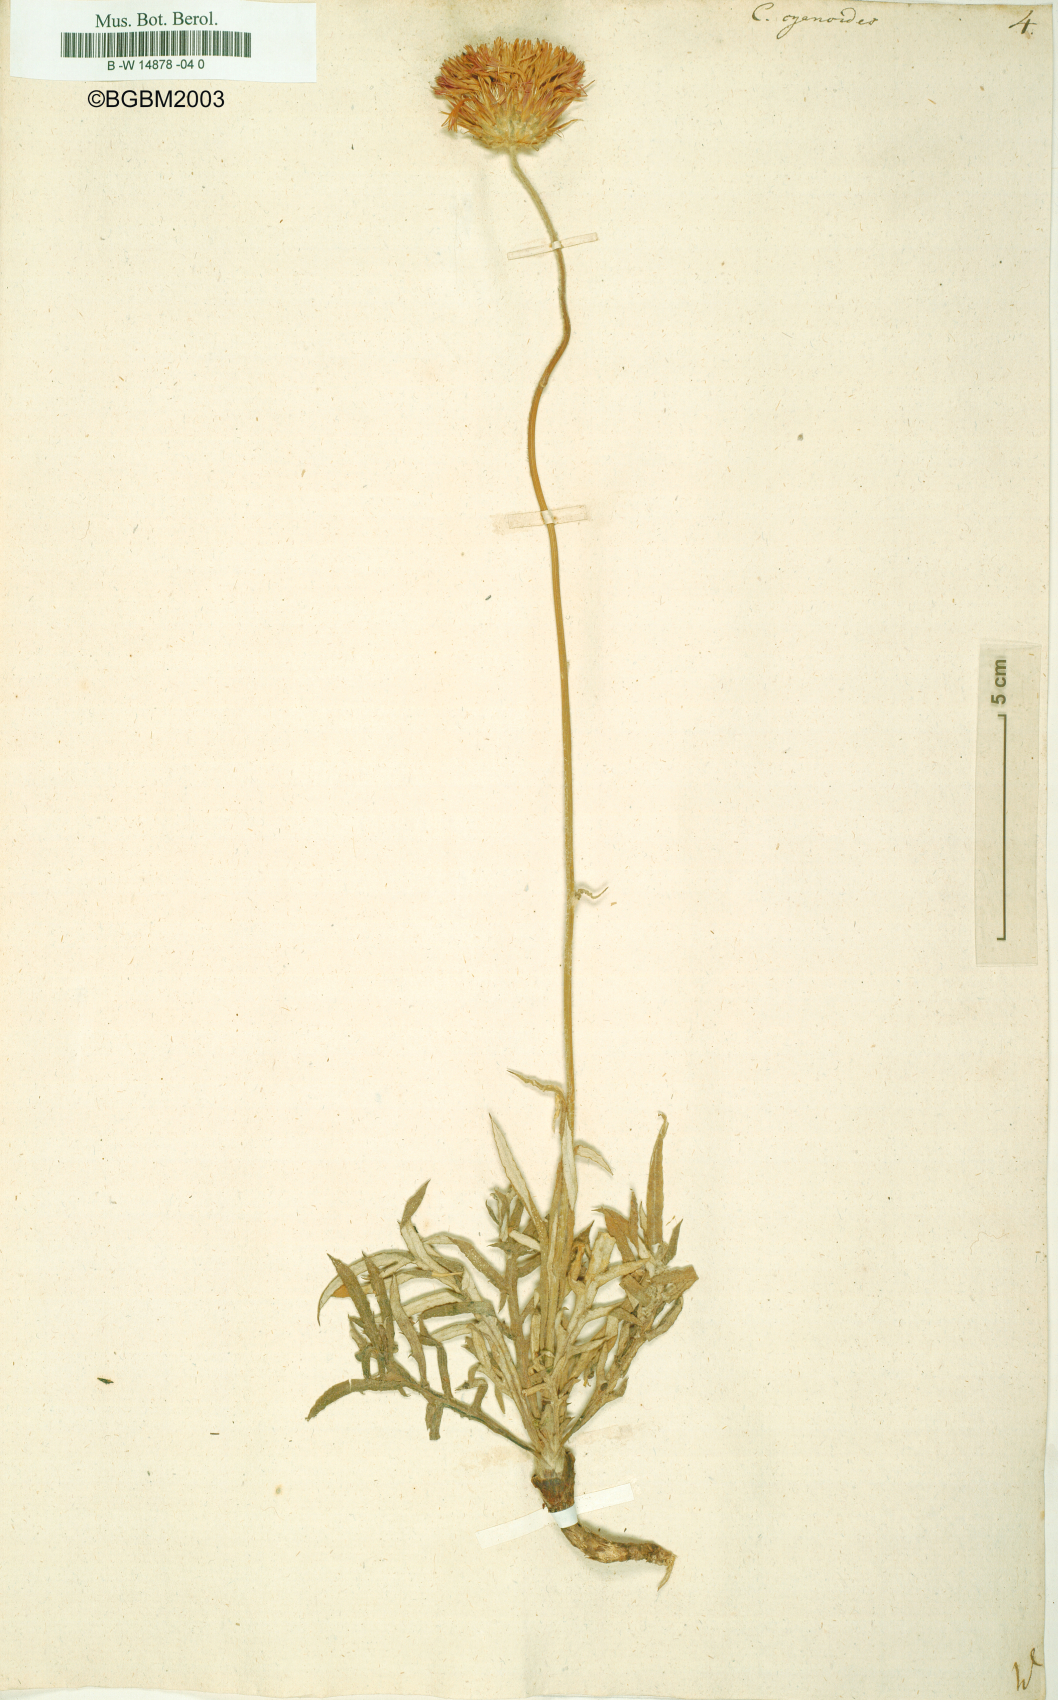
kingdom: Plantae
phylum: Tracheophyta
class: Magnoliopsida
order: Asterales
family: Asteraceae
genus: Jurinea
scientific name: Jurinea
